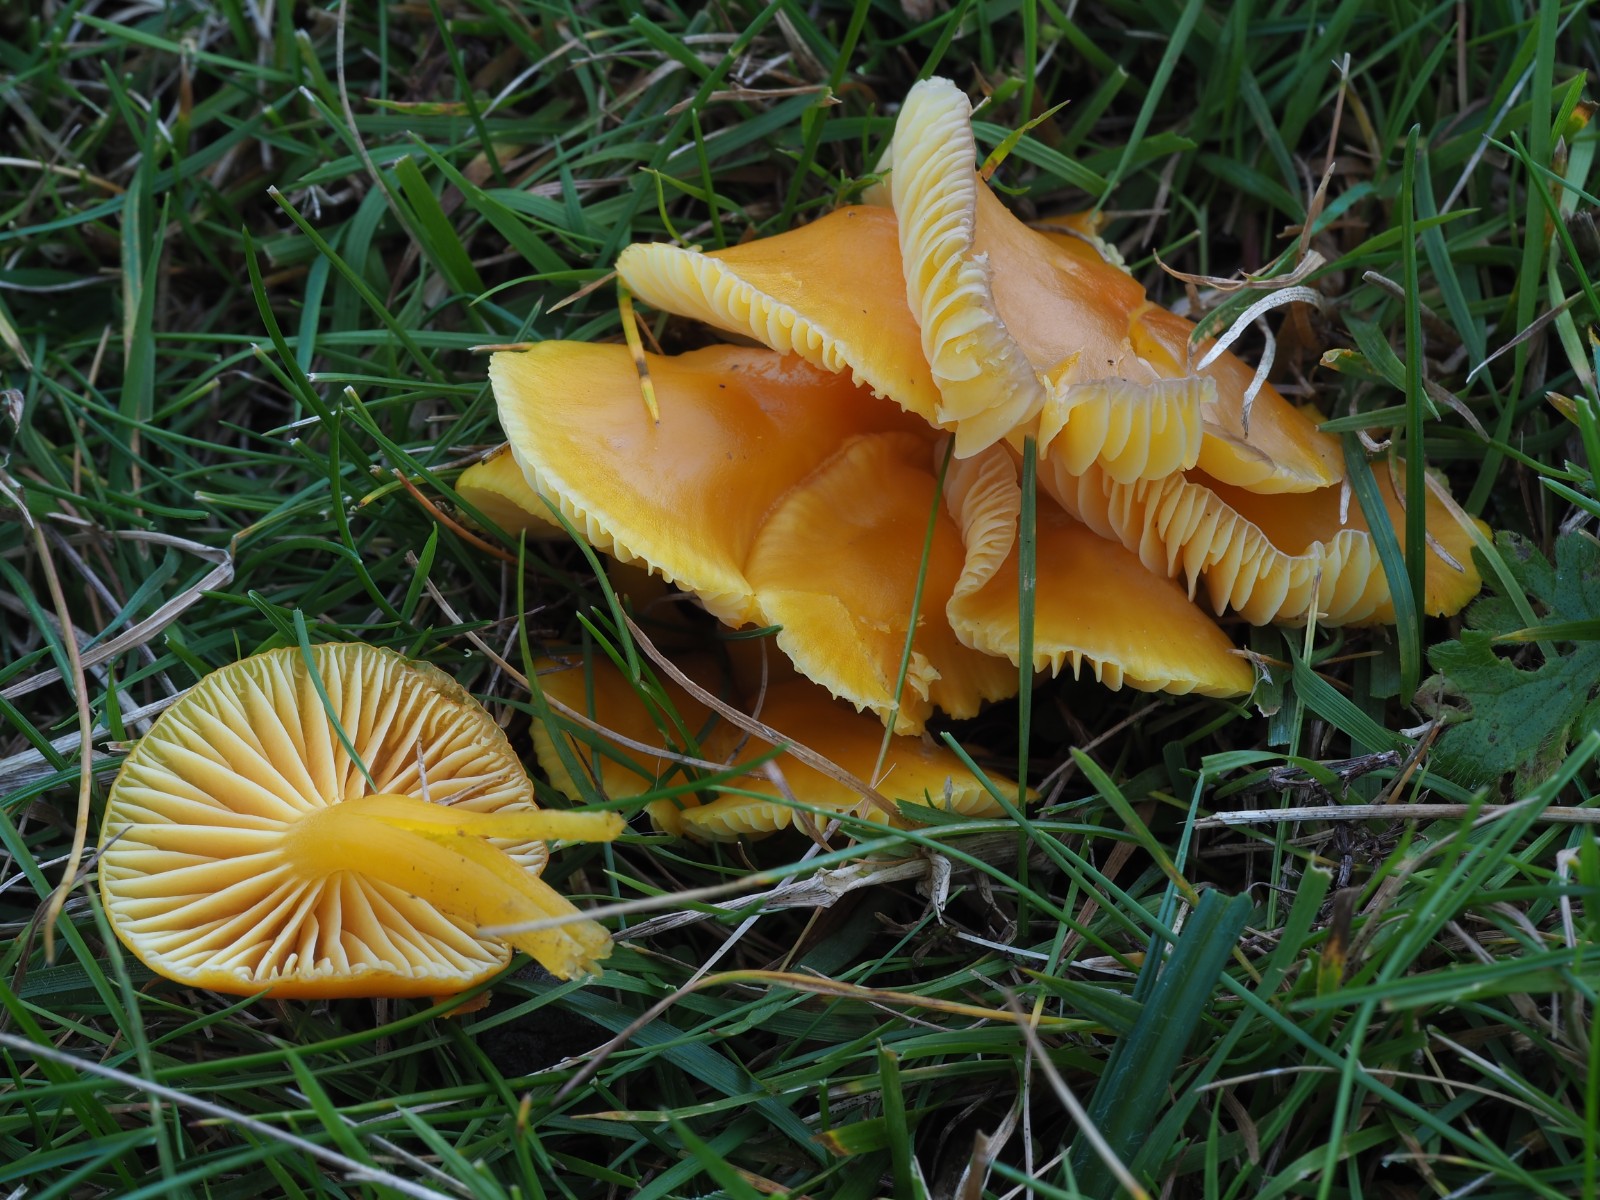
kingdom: Fungi
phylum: Basidiomycota
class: Agaricomycetes
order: Agaricales
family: Hygrophoraceae
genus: Hygrocybe
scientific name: Hygrocybe ceracea
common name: voksgul vokshat
